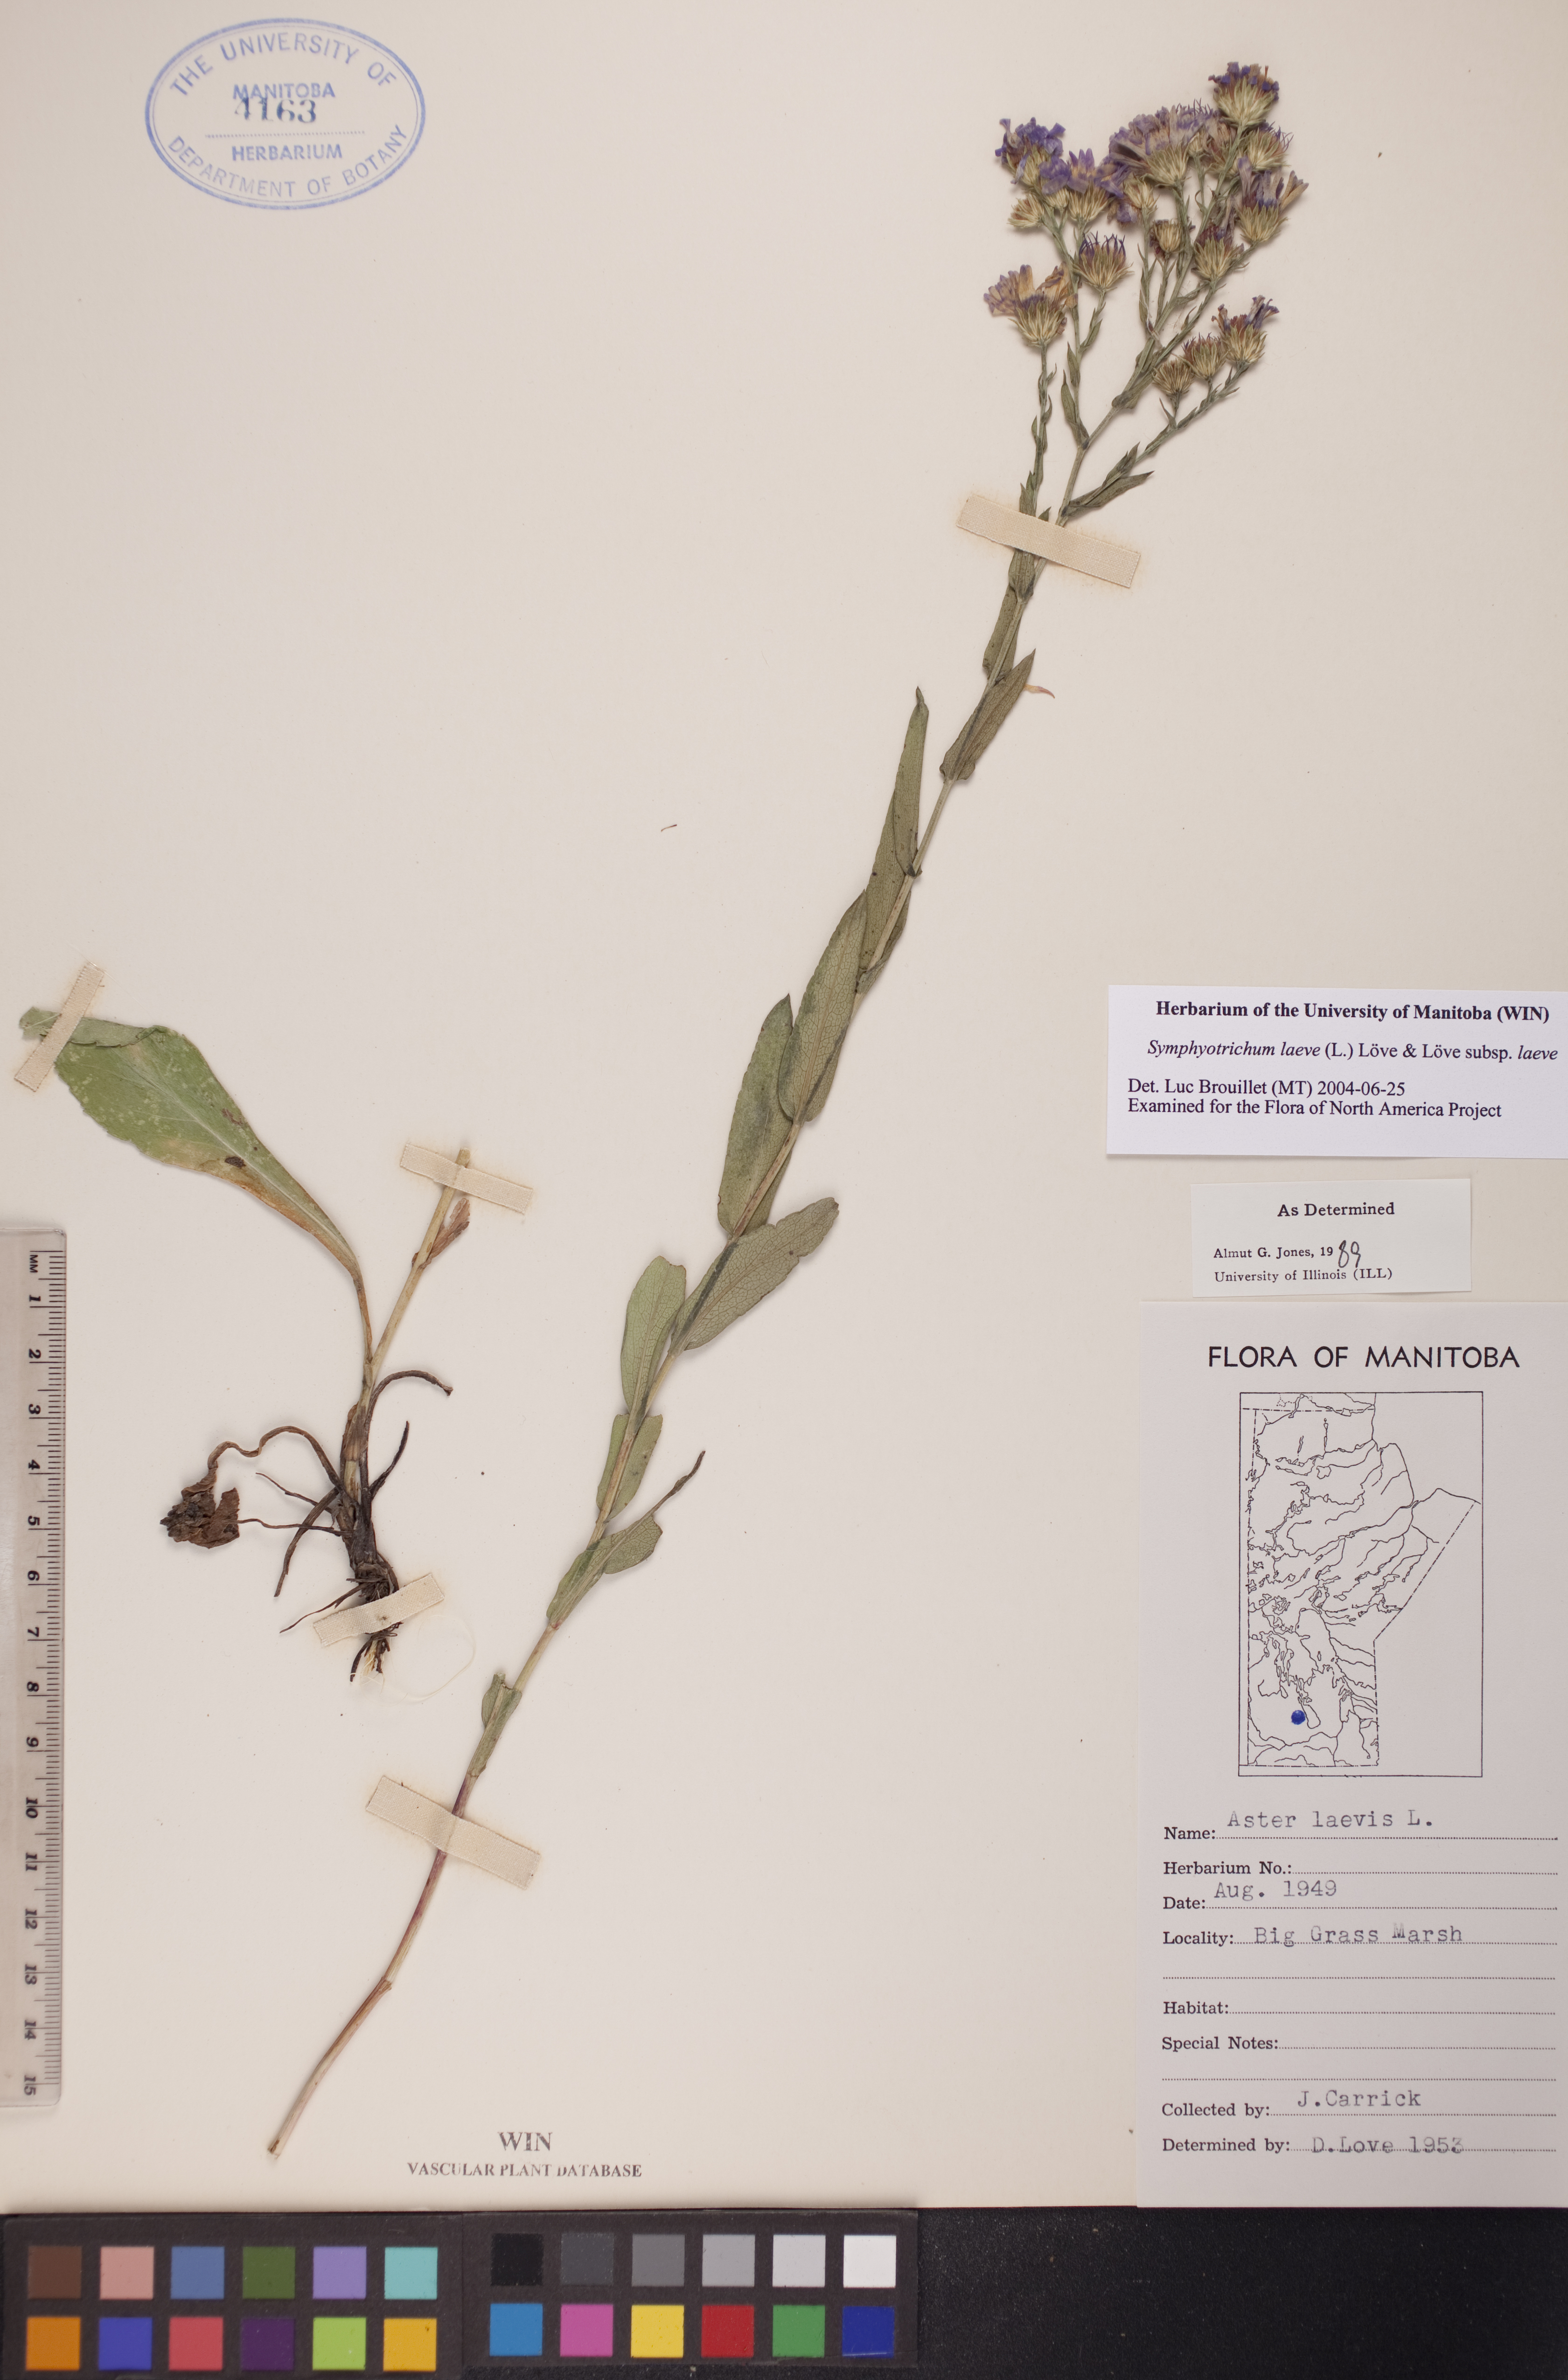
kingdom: Plantae
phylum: Tracheophyta
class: Magnoliopsida
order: Asterales
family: Asteraceae
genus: Symphyotrichum
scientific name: Symphyotrichum laeve
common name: Glaucous aster
